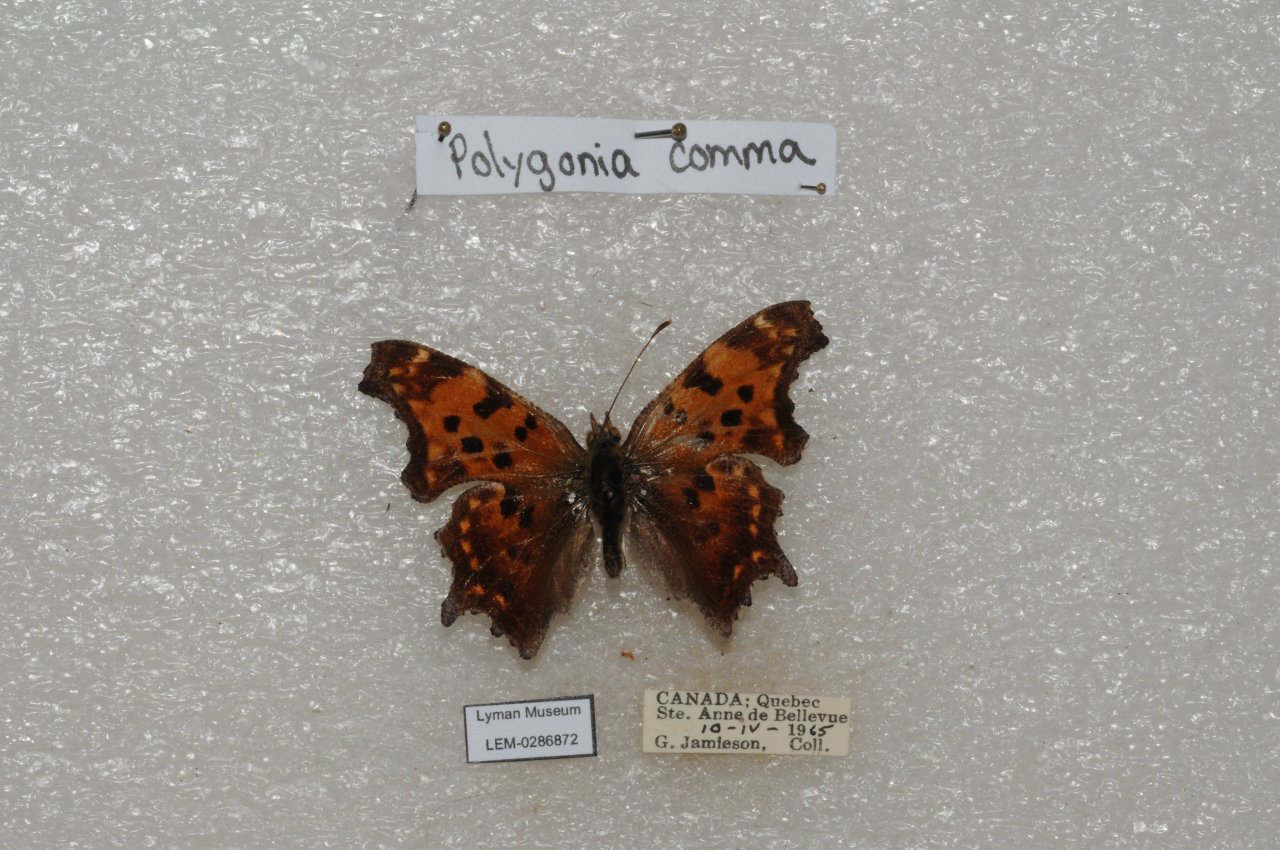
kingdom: Animalia
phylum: Arthropoda
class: Insecta
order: Lepidoptera
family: Nymphalidae
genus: Polygonia
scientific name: Polygonia comma
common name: Eastern Comma
